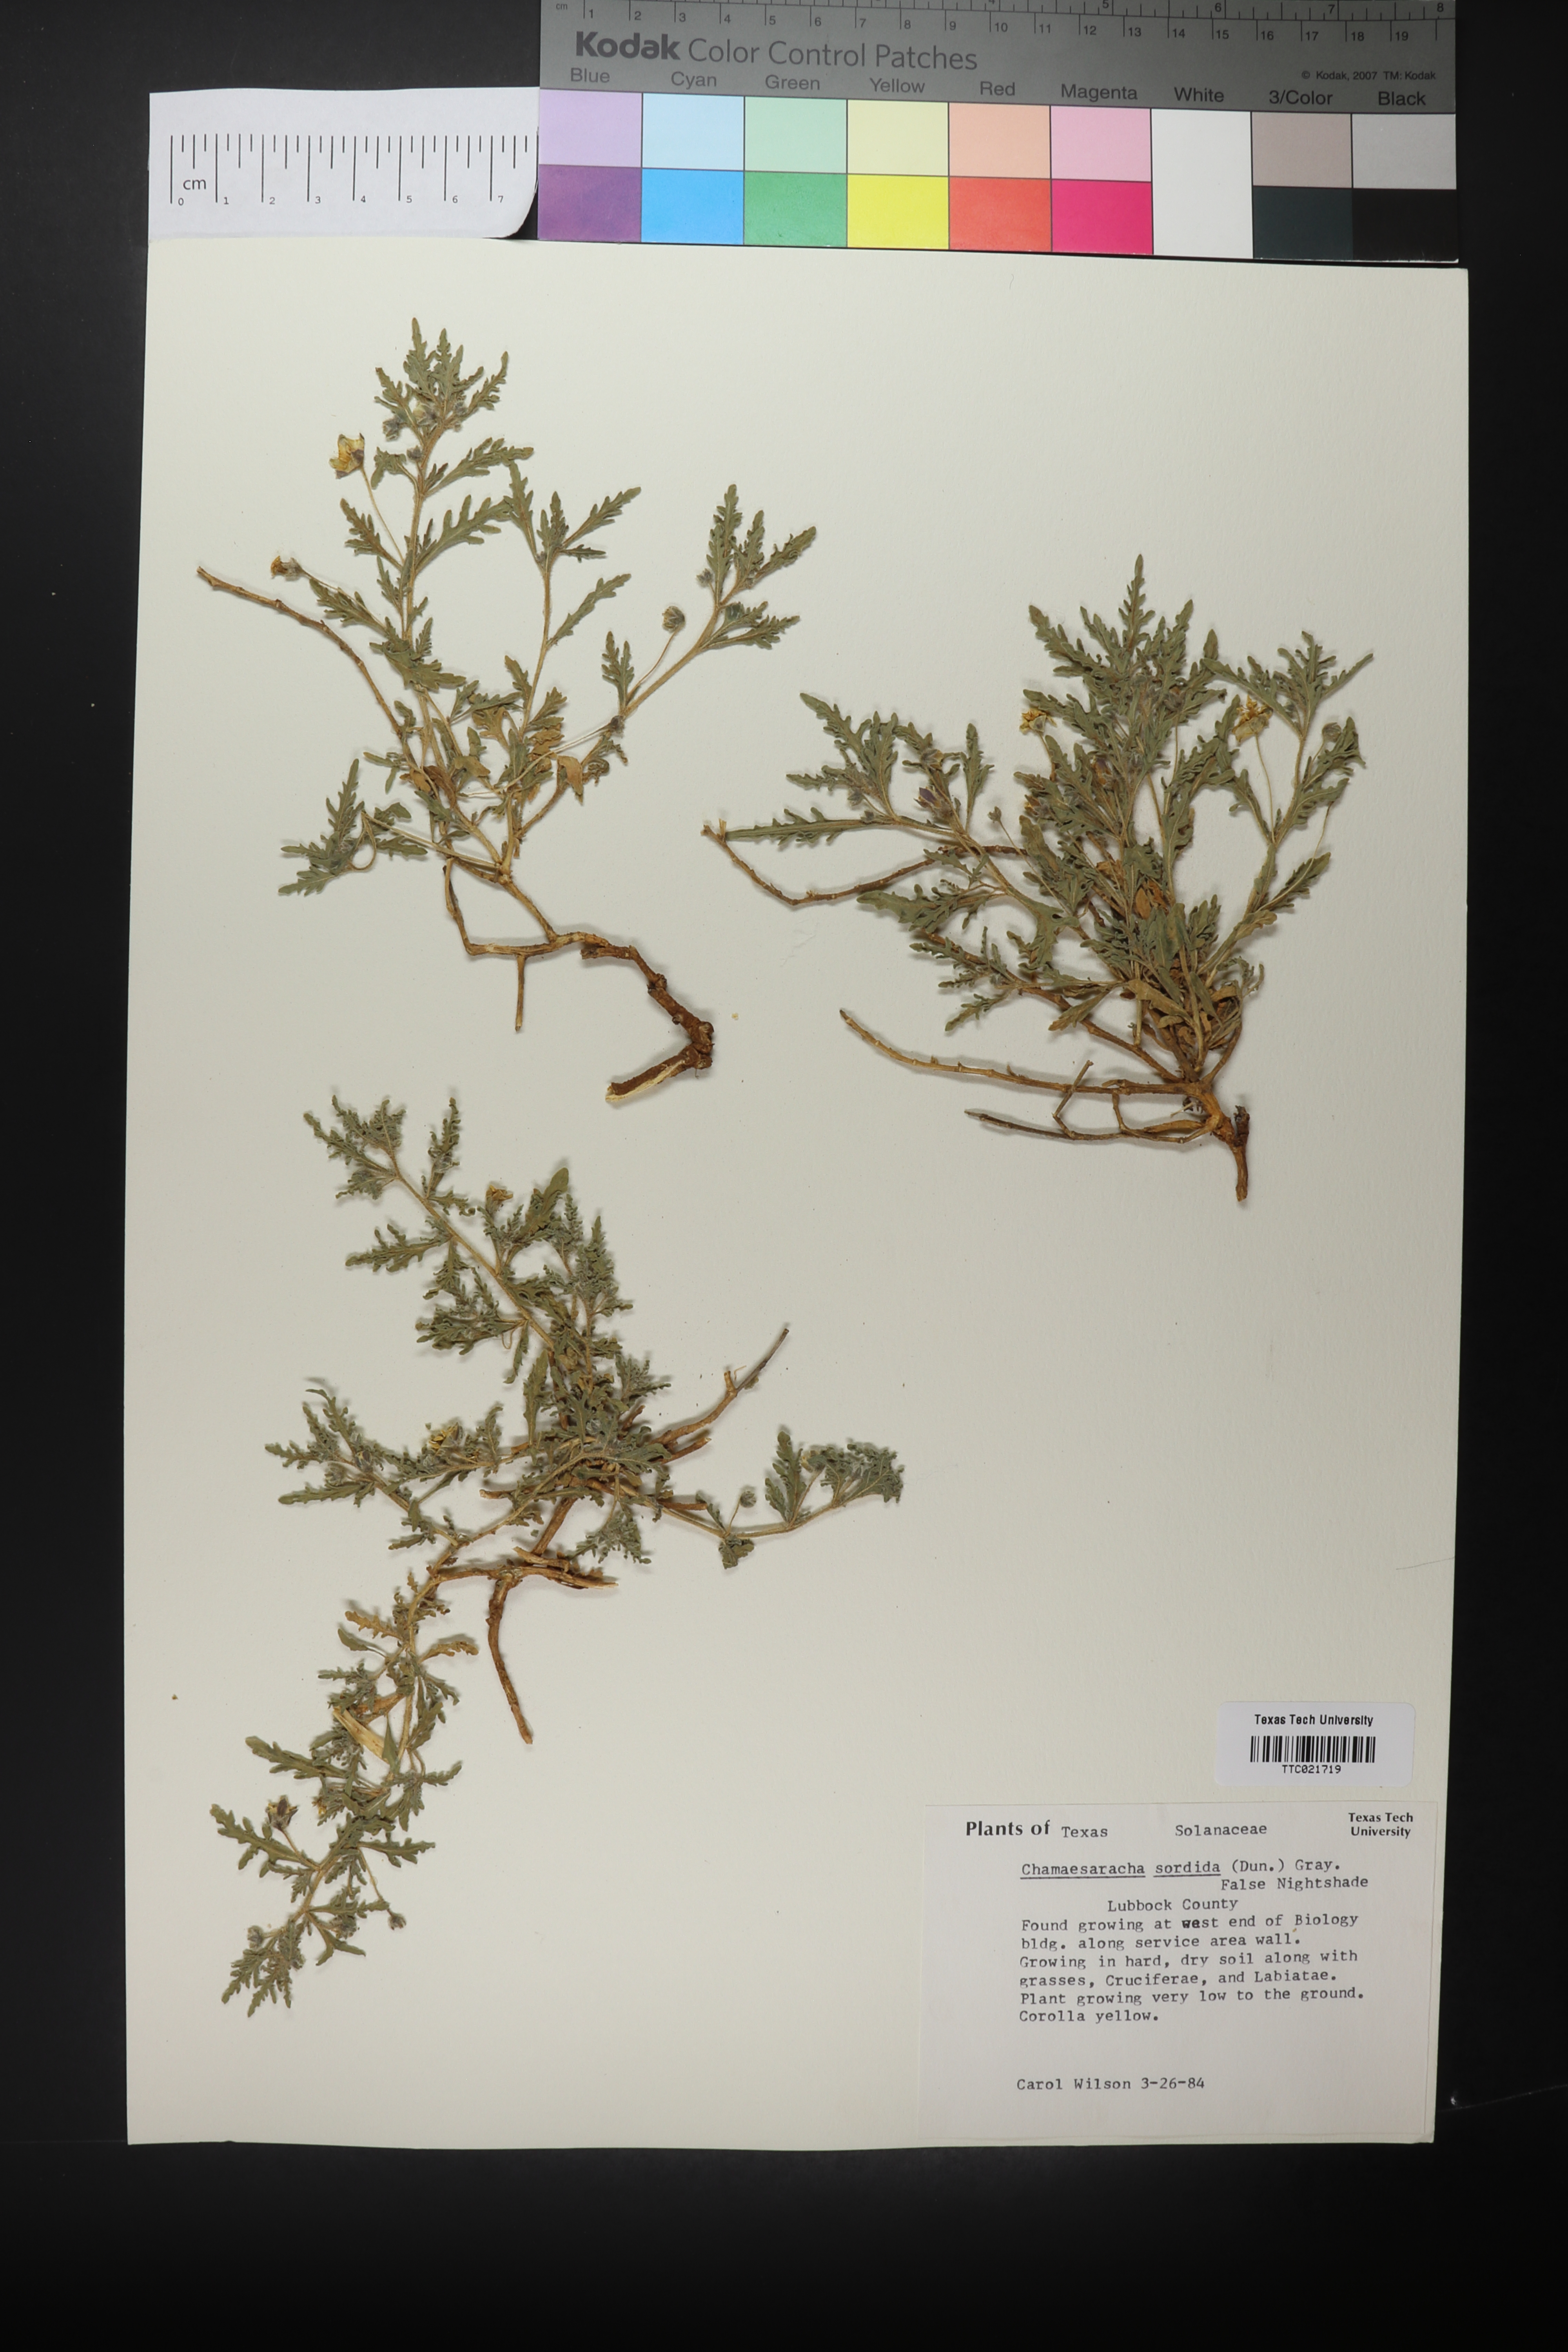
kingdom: Plantae
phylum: Tracheophyta
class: Magnoliopsida
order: Solanales
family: Solanaceae
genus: Chamaesaracha
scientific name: Chamaesaracha sordida
